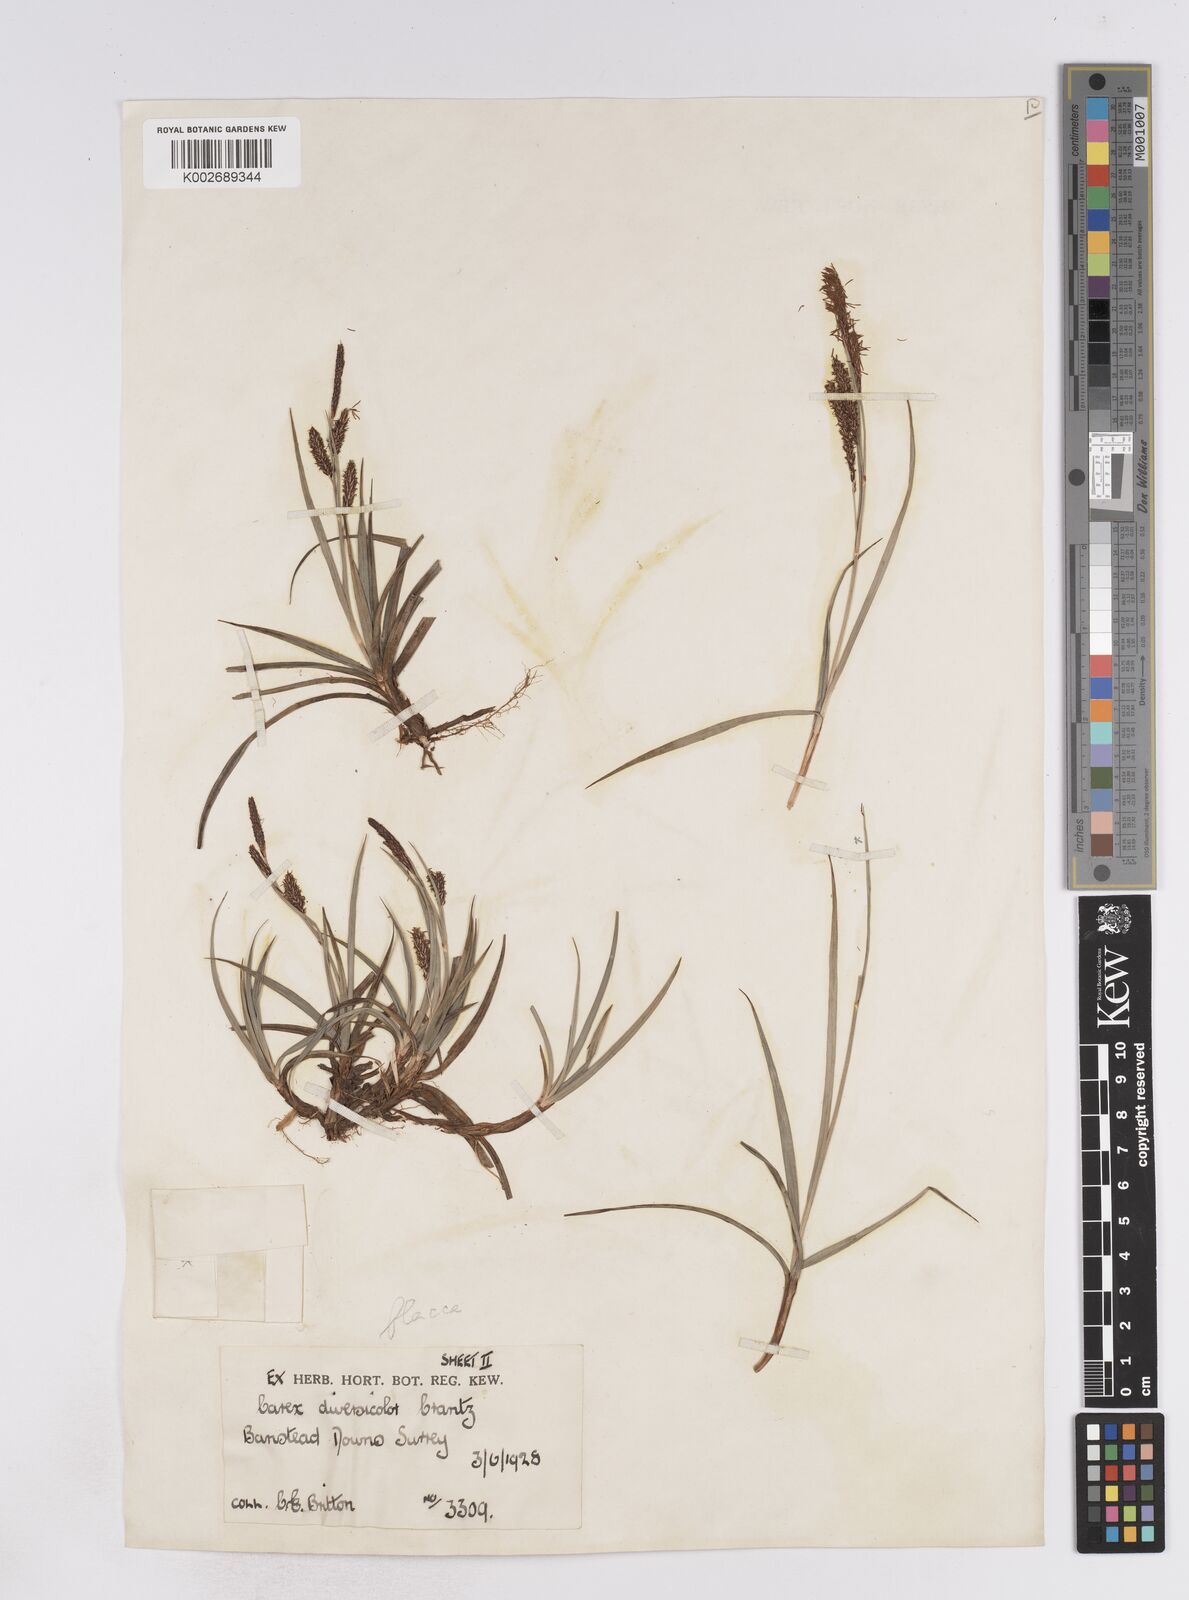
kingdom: Plantae
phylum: Tracheophyta
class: Liliopsida
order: Poales
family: Cyperaceae
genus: Carex
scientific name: Carex flacca
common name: Glaucous sedge
